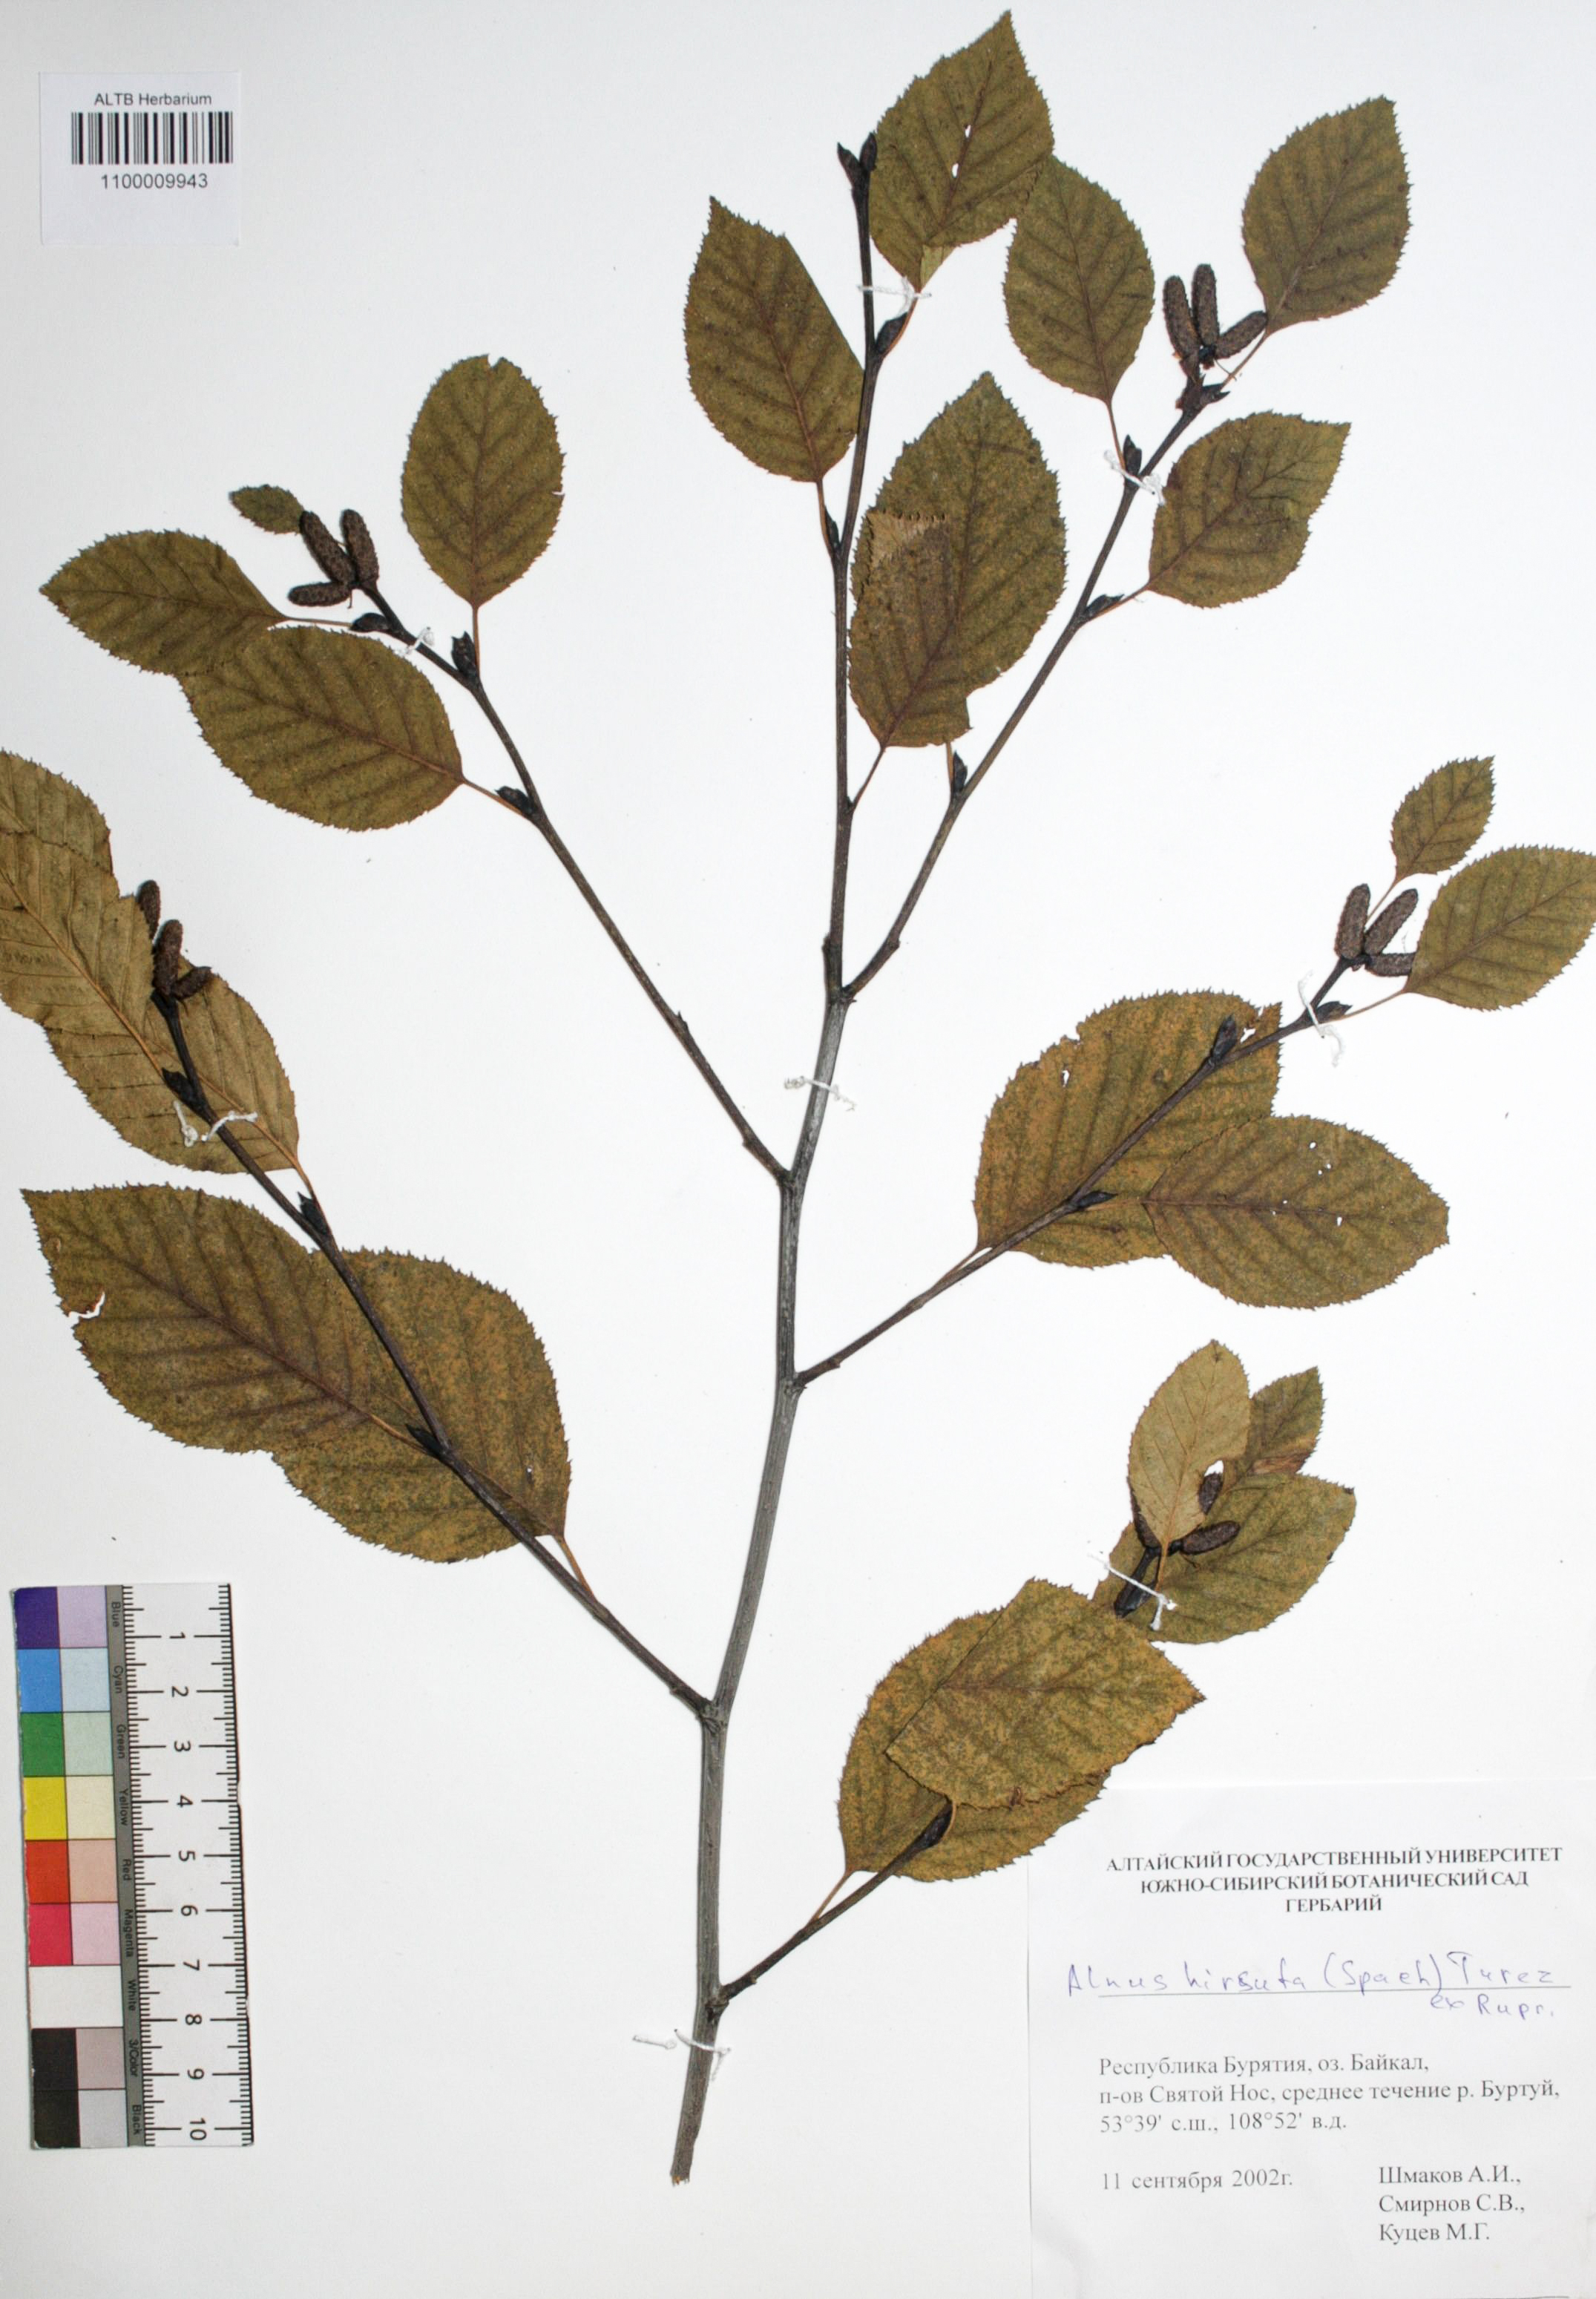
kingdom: Plantae
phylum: Tracheophyta
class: Magnoliopsida
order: Fagales
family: Betulaceae
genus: Alnus
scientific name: Alnus hirsuta
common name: Manchurian alder
